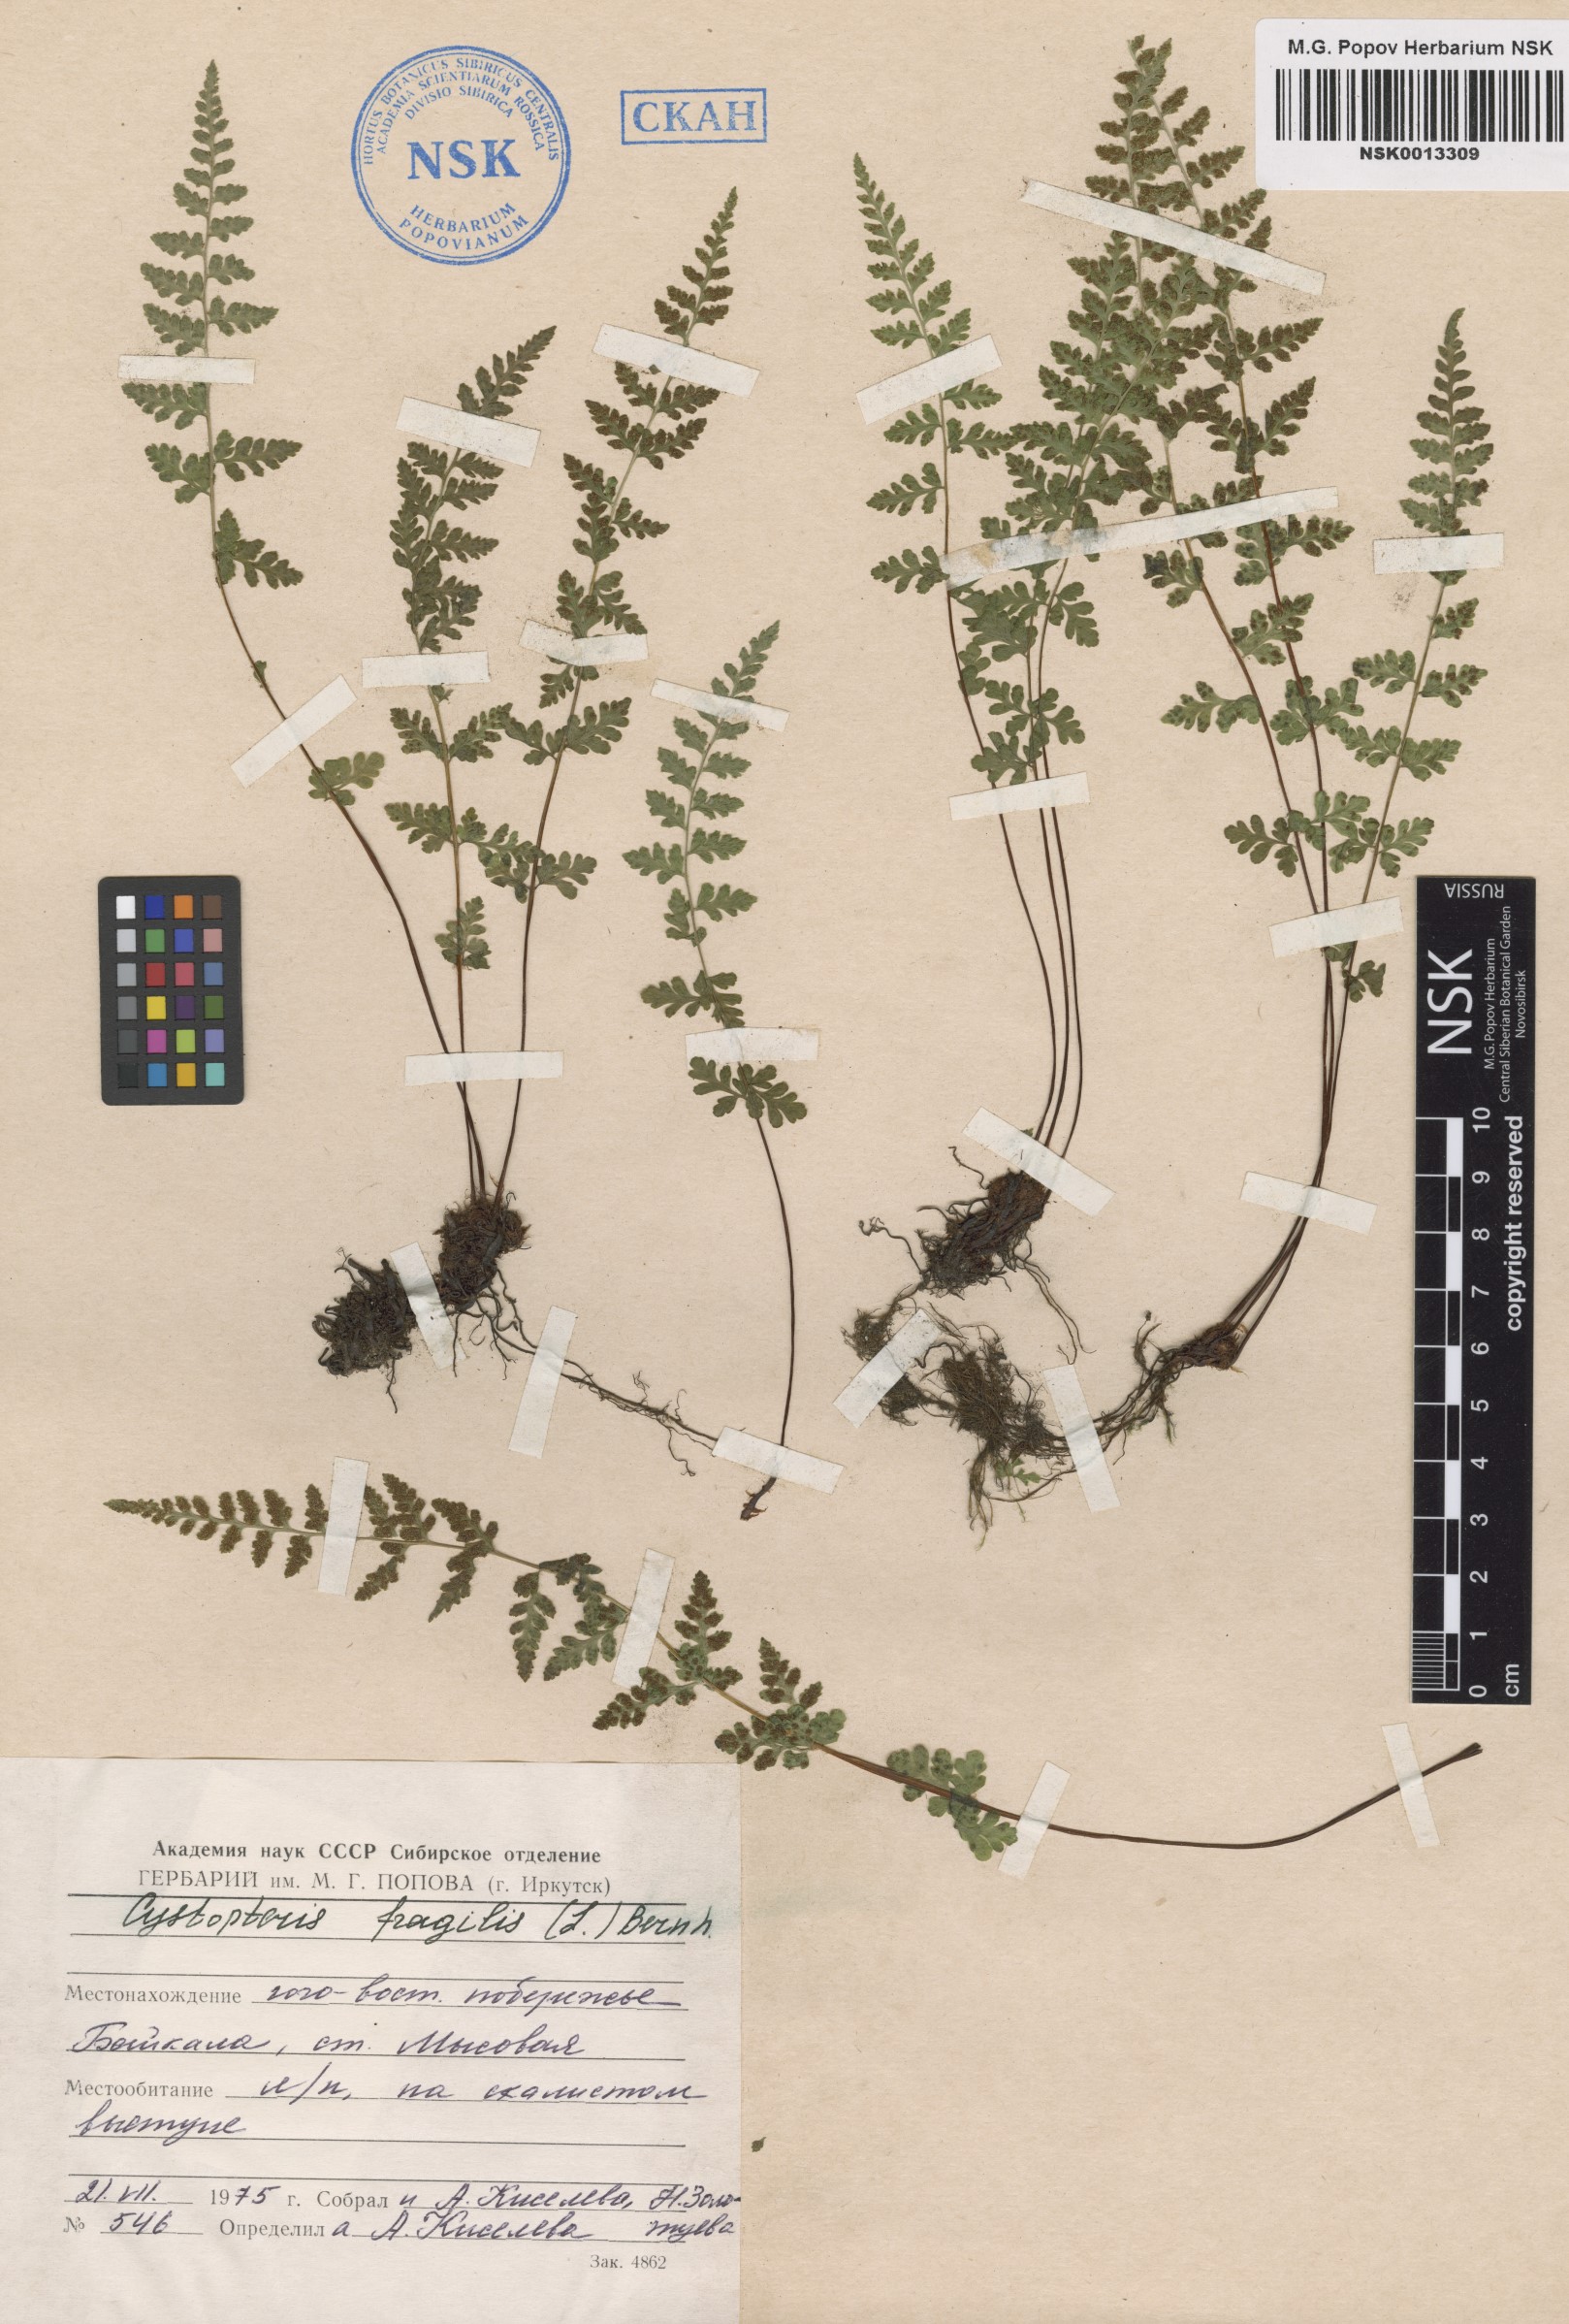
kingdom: Plantae
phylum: Tracheophyta
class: Polypodiopsida
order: Polypodiales
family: Cystopteridaceae
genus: Cystopteris
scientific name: Cystopteris fragilis
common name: Brittle bladder fern
